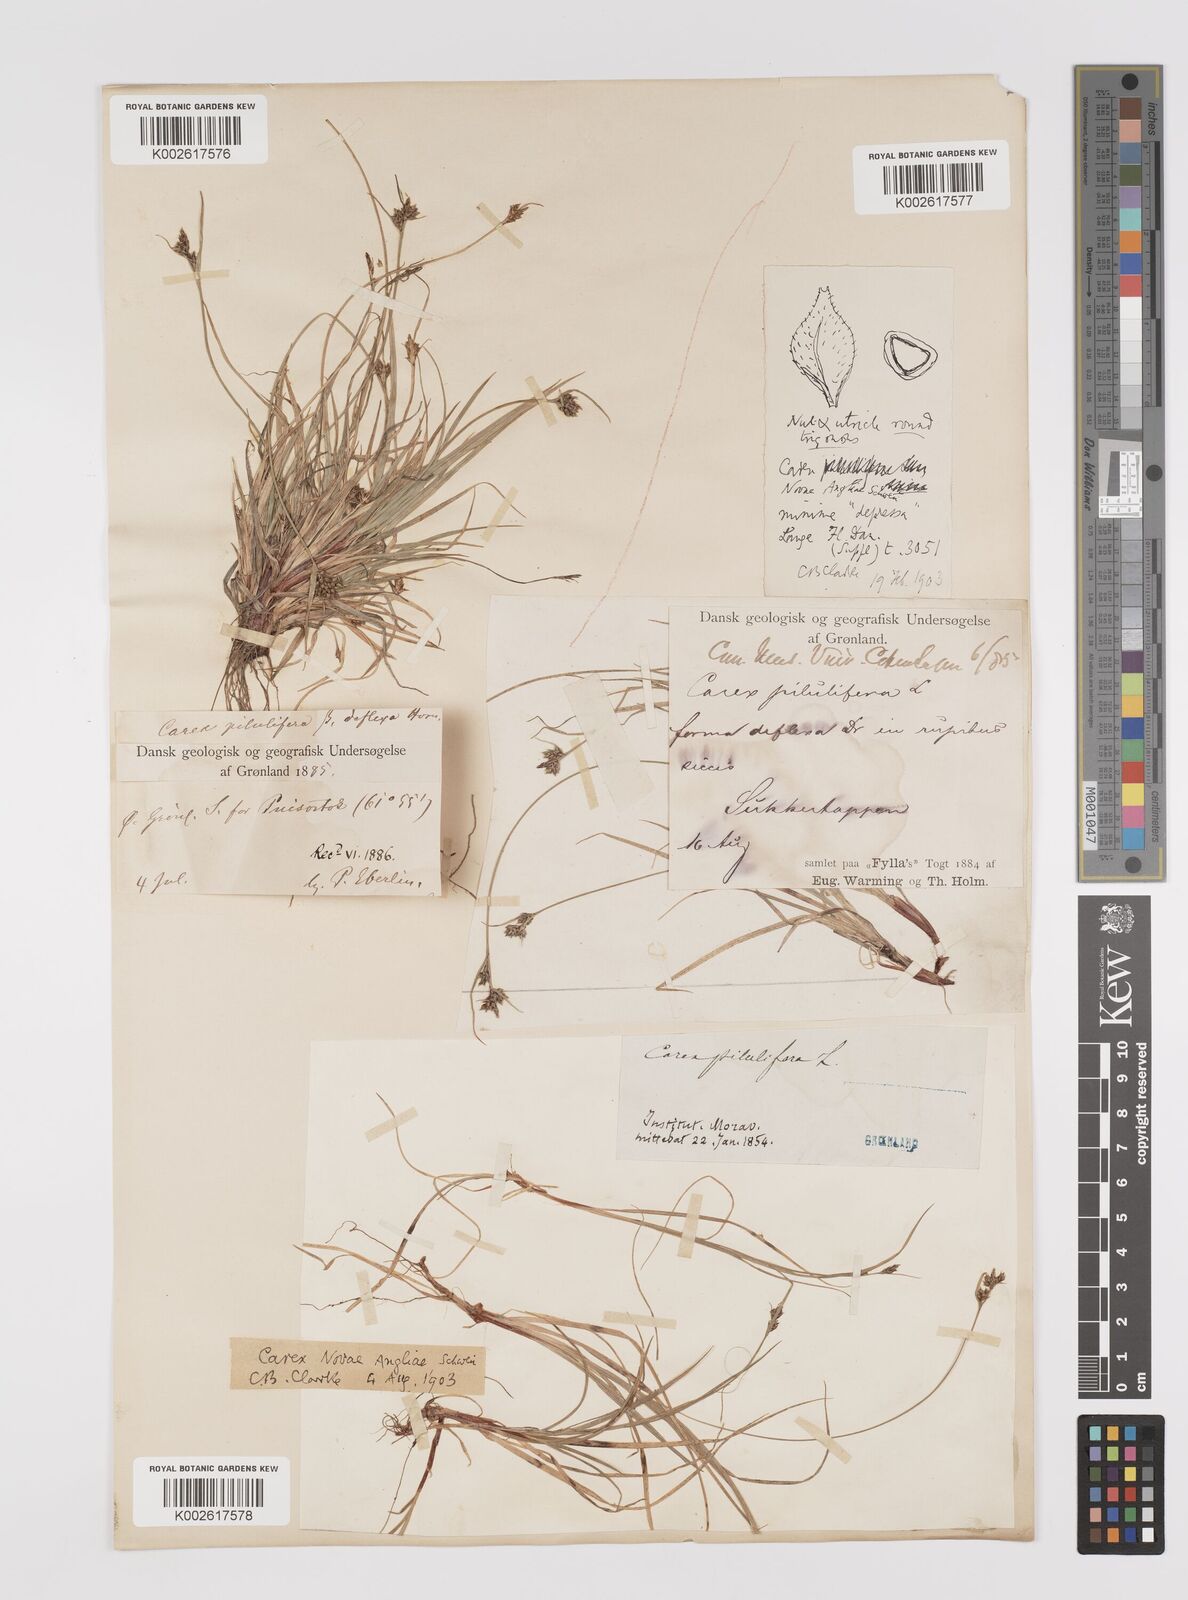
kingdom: Plantae
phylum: Tracheophyta
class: Liliopsida
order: Poales
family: Cyperaceae
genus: Carex
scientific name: Carex deflexa
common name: Bent northern sedge
